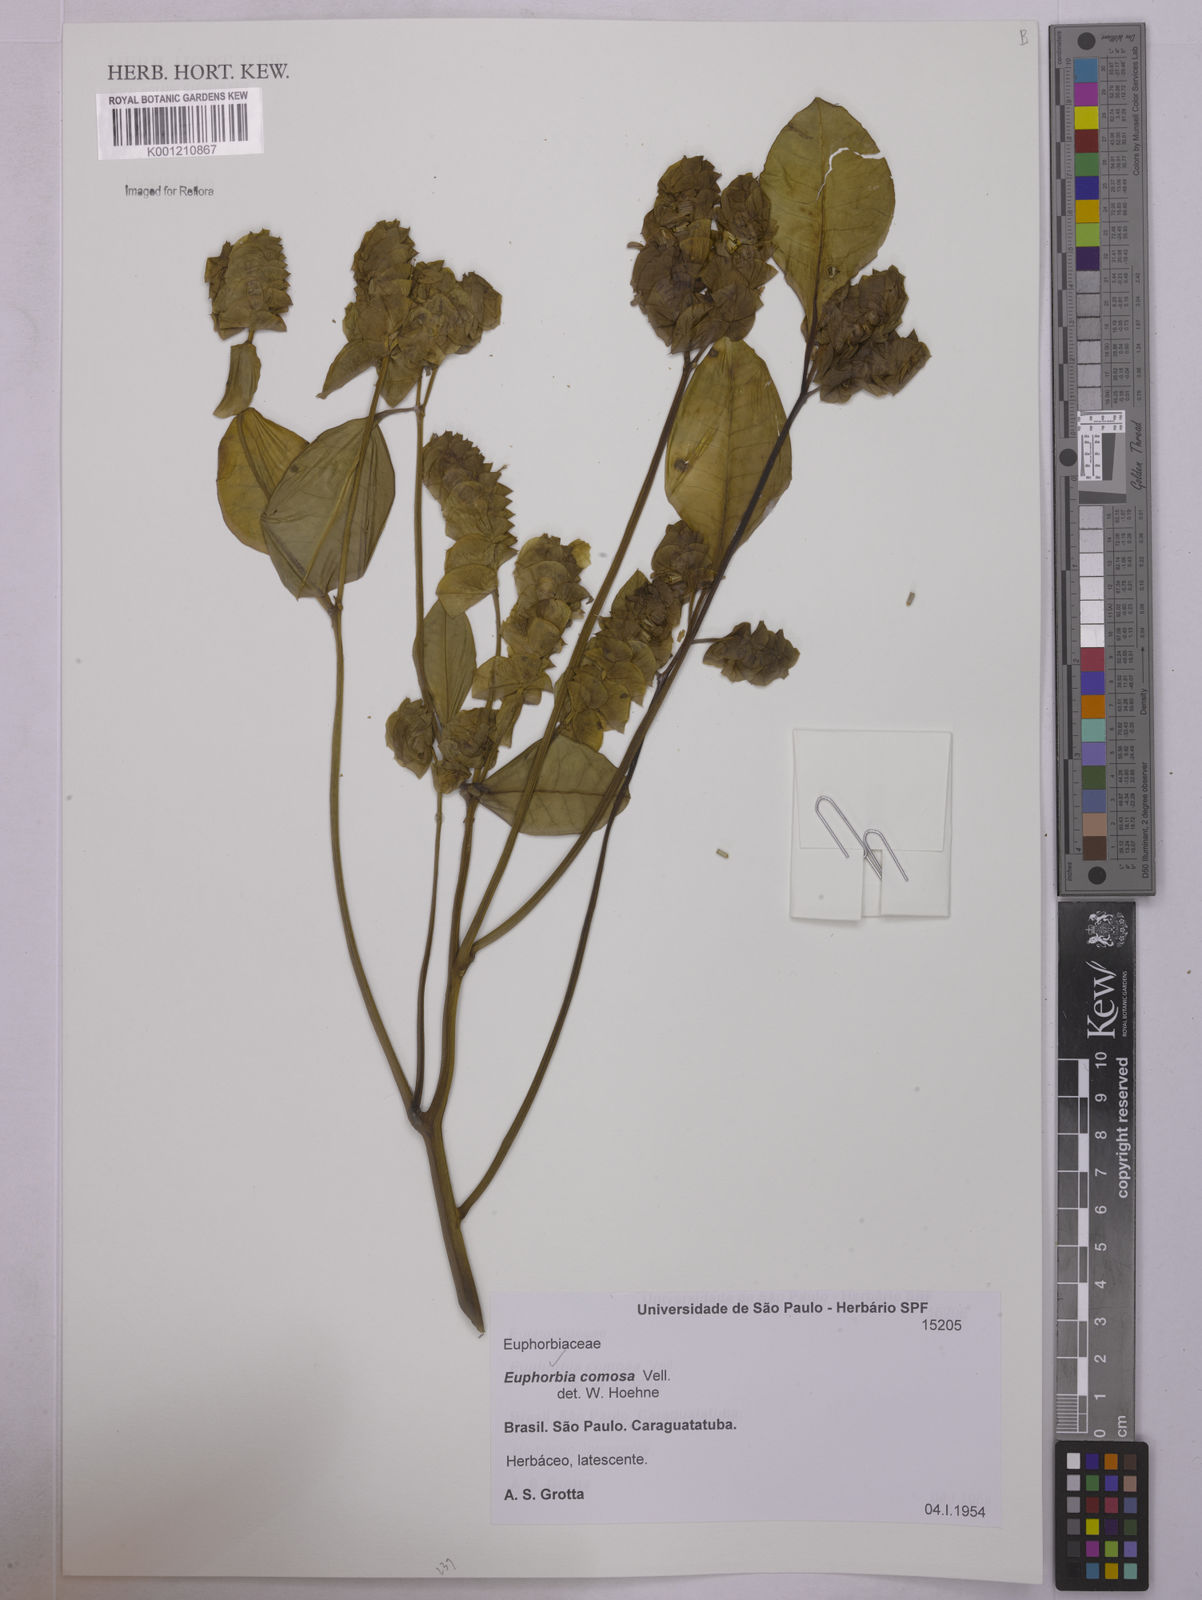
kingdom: Plantae
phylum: Tracheophyta
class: Magnoliopsida
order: Malpighiales
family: Euphorbiaceae
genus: Euphorbia
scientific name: Euphorbia comosa
